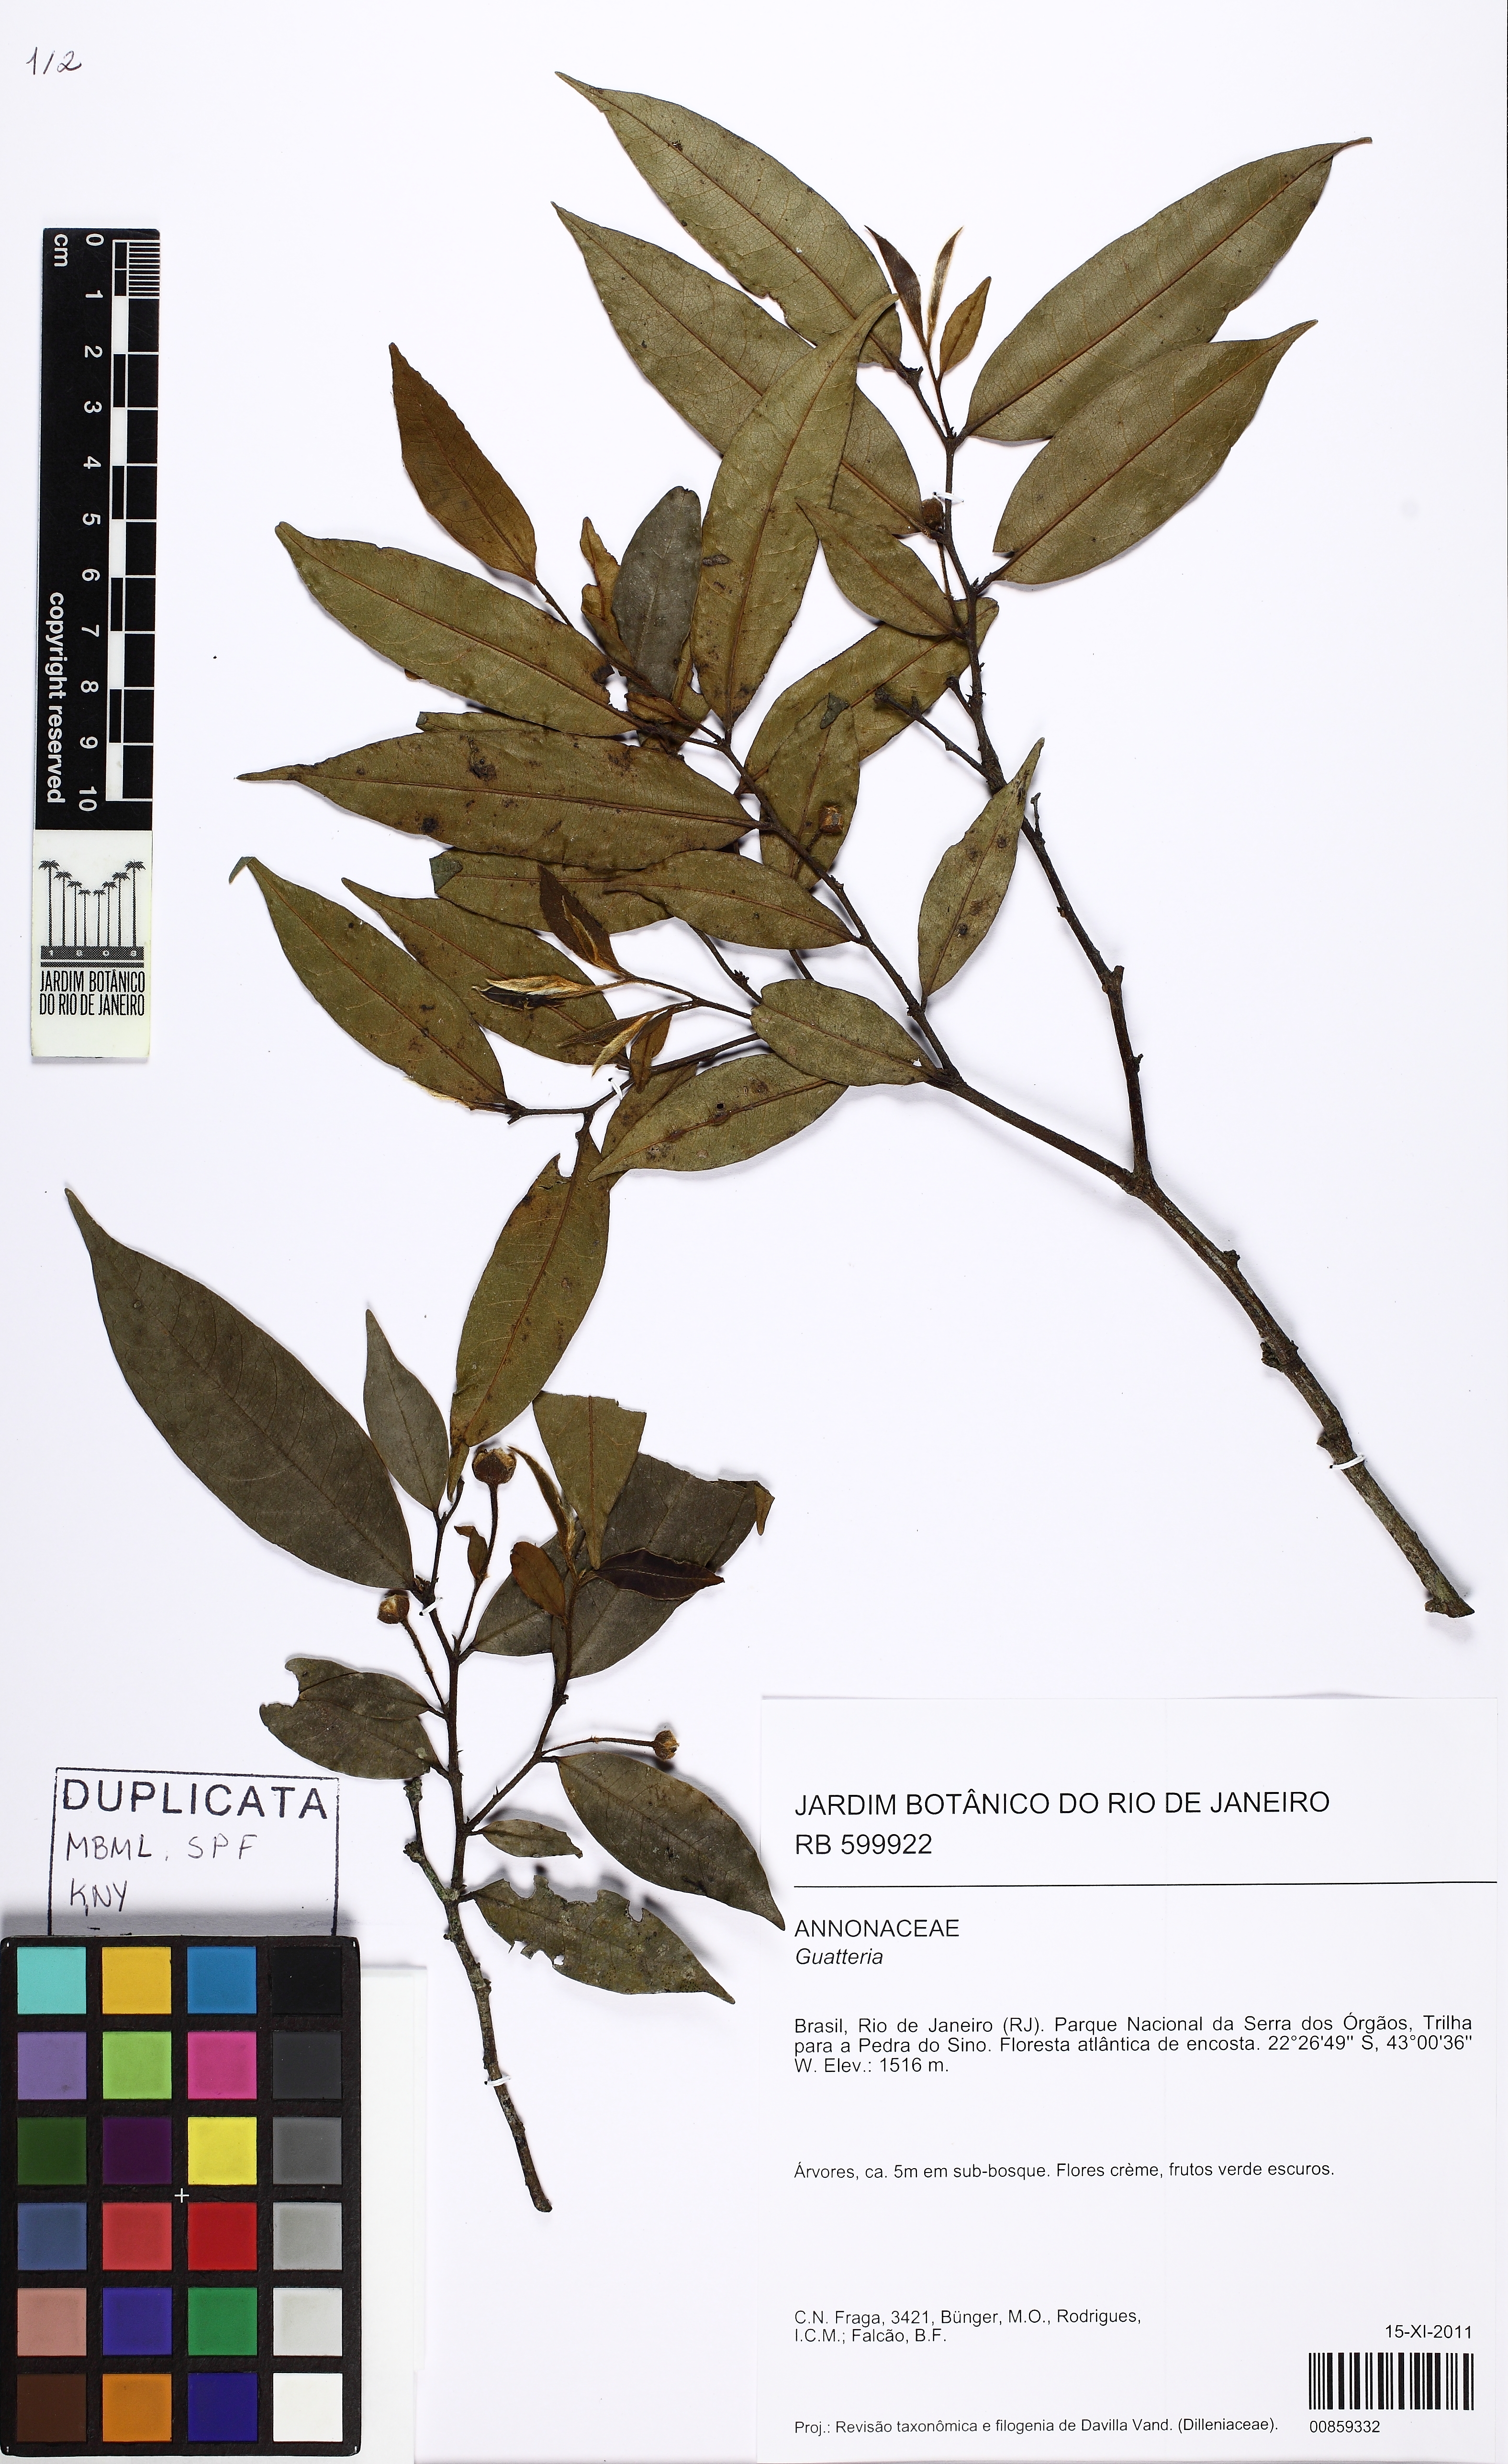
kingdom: Plantae
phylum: Tracheophyta
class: Magnoliopsida
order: Magnoliales
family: Annonaceae
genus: Guatteria
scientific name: Guatteria australis
